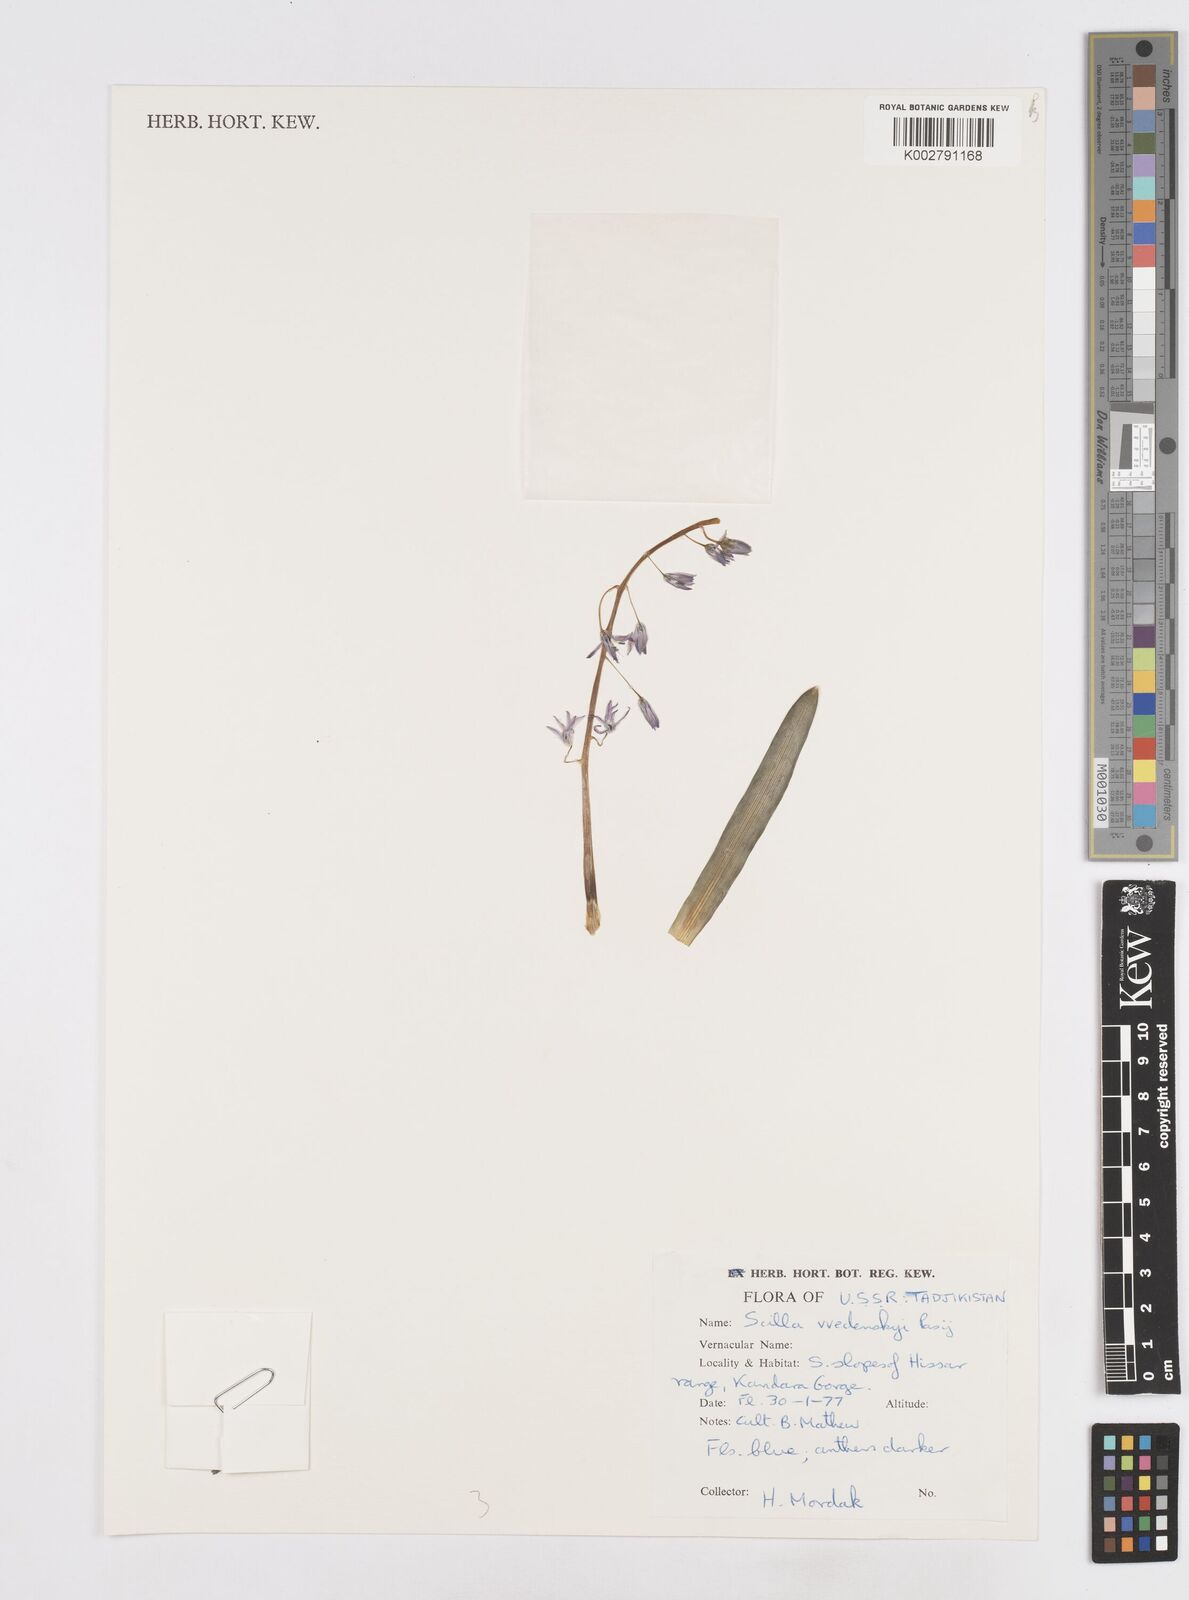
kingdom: Plantae
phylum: Tracheophyta
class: Liliopsida
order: Asparagales
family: Asparagaceae
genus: Fessia
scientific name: Fessia vvedenskyi
